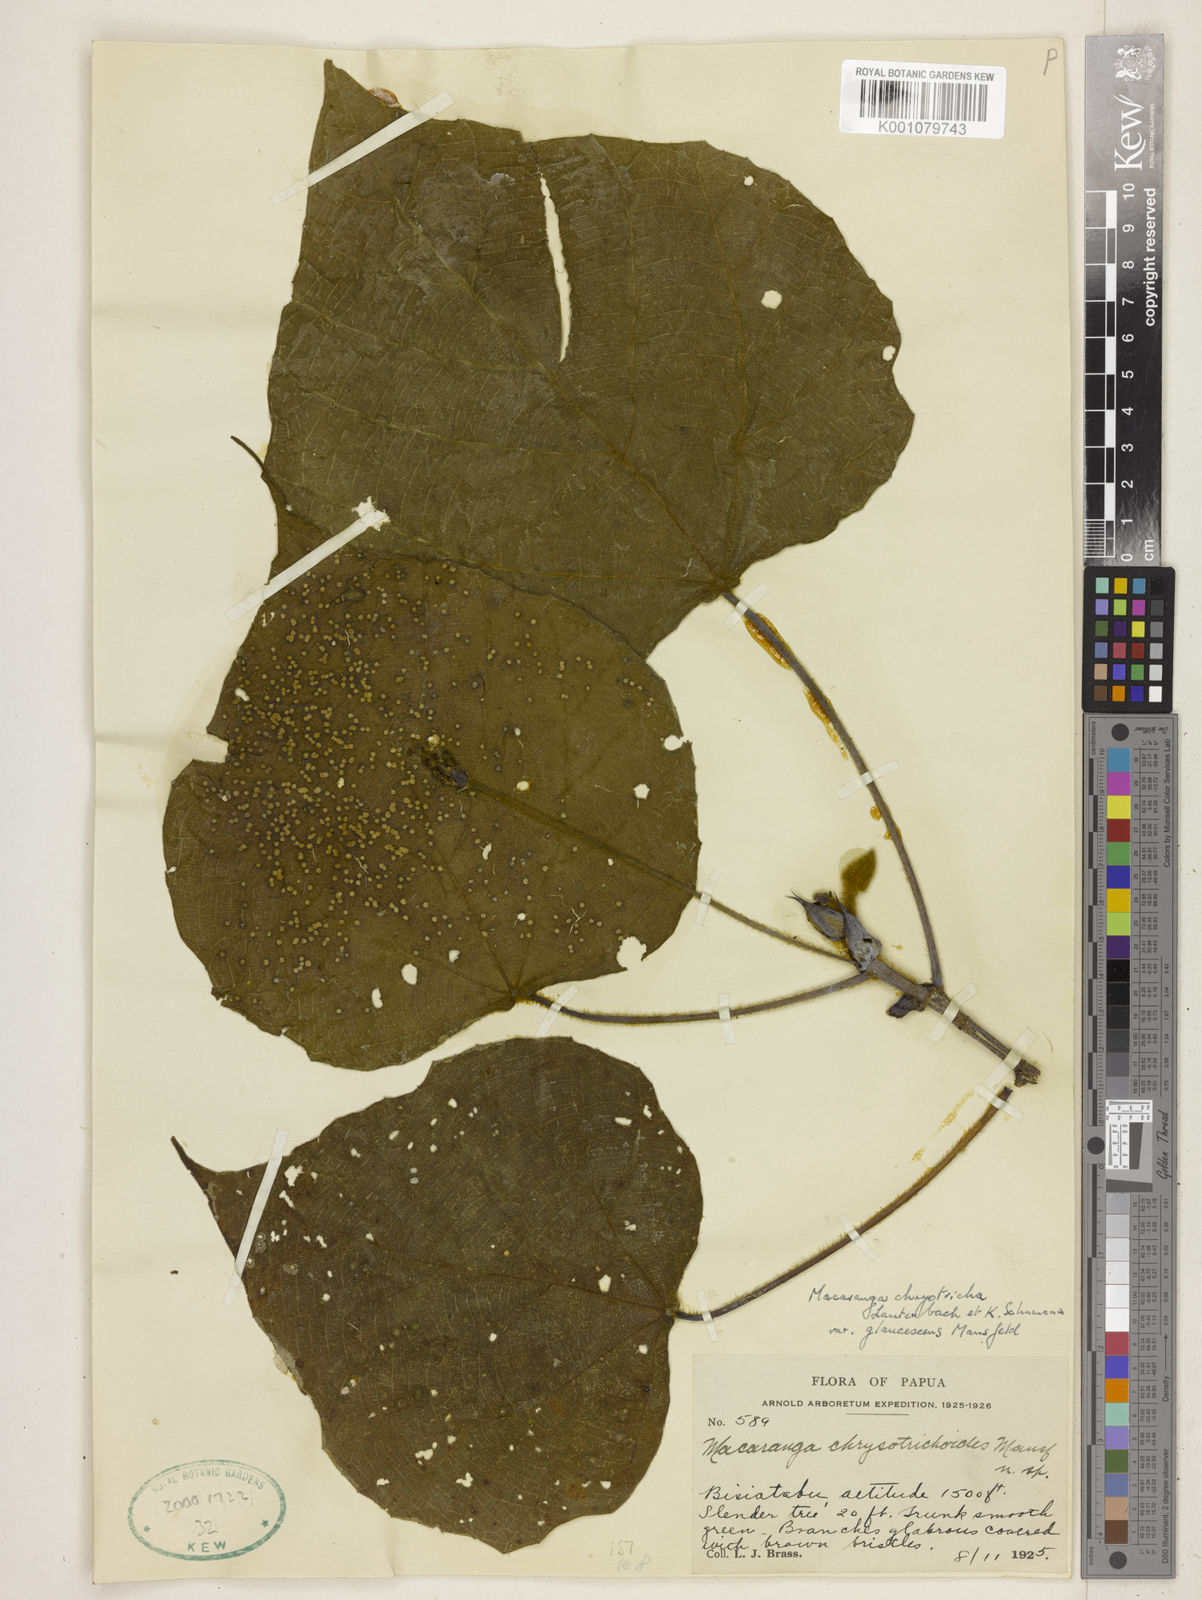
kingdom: Plantae
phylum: Tracheophyta
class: Magnoliopsida
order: Malpighiales
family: Euphorbiaceae
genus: Macaranga
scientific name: Macaranga chrysotricha
